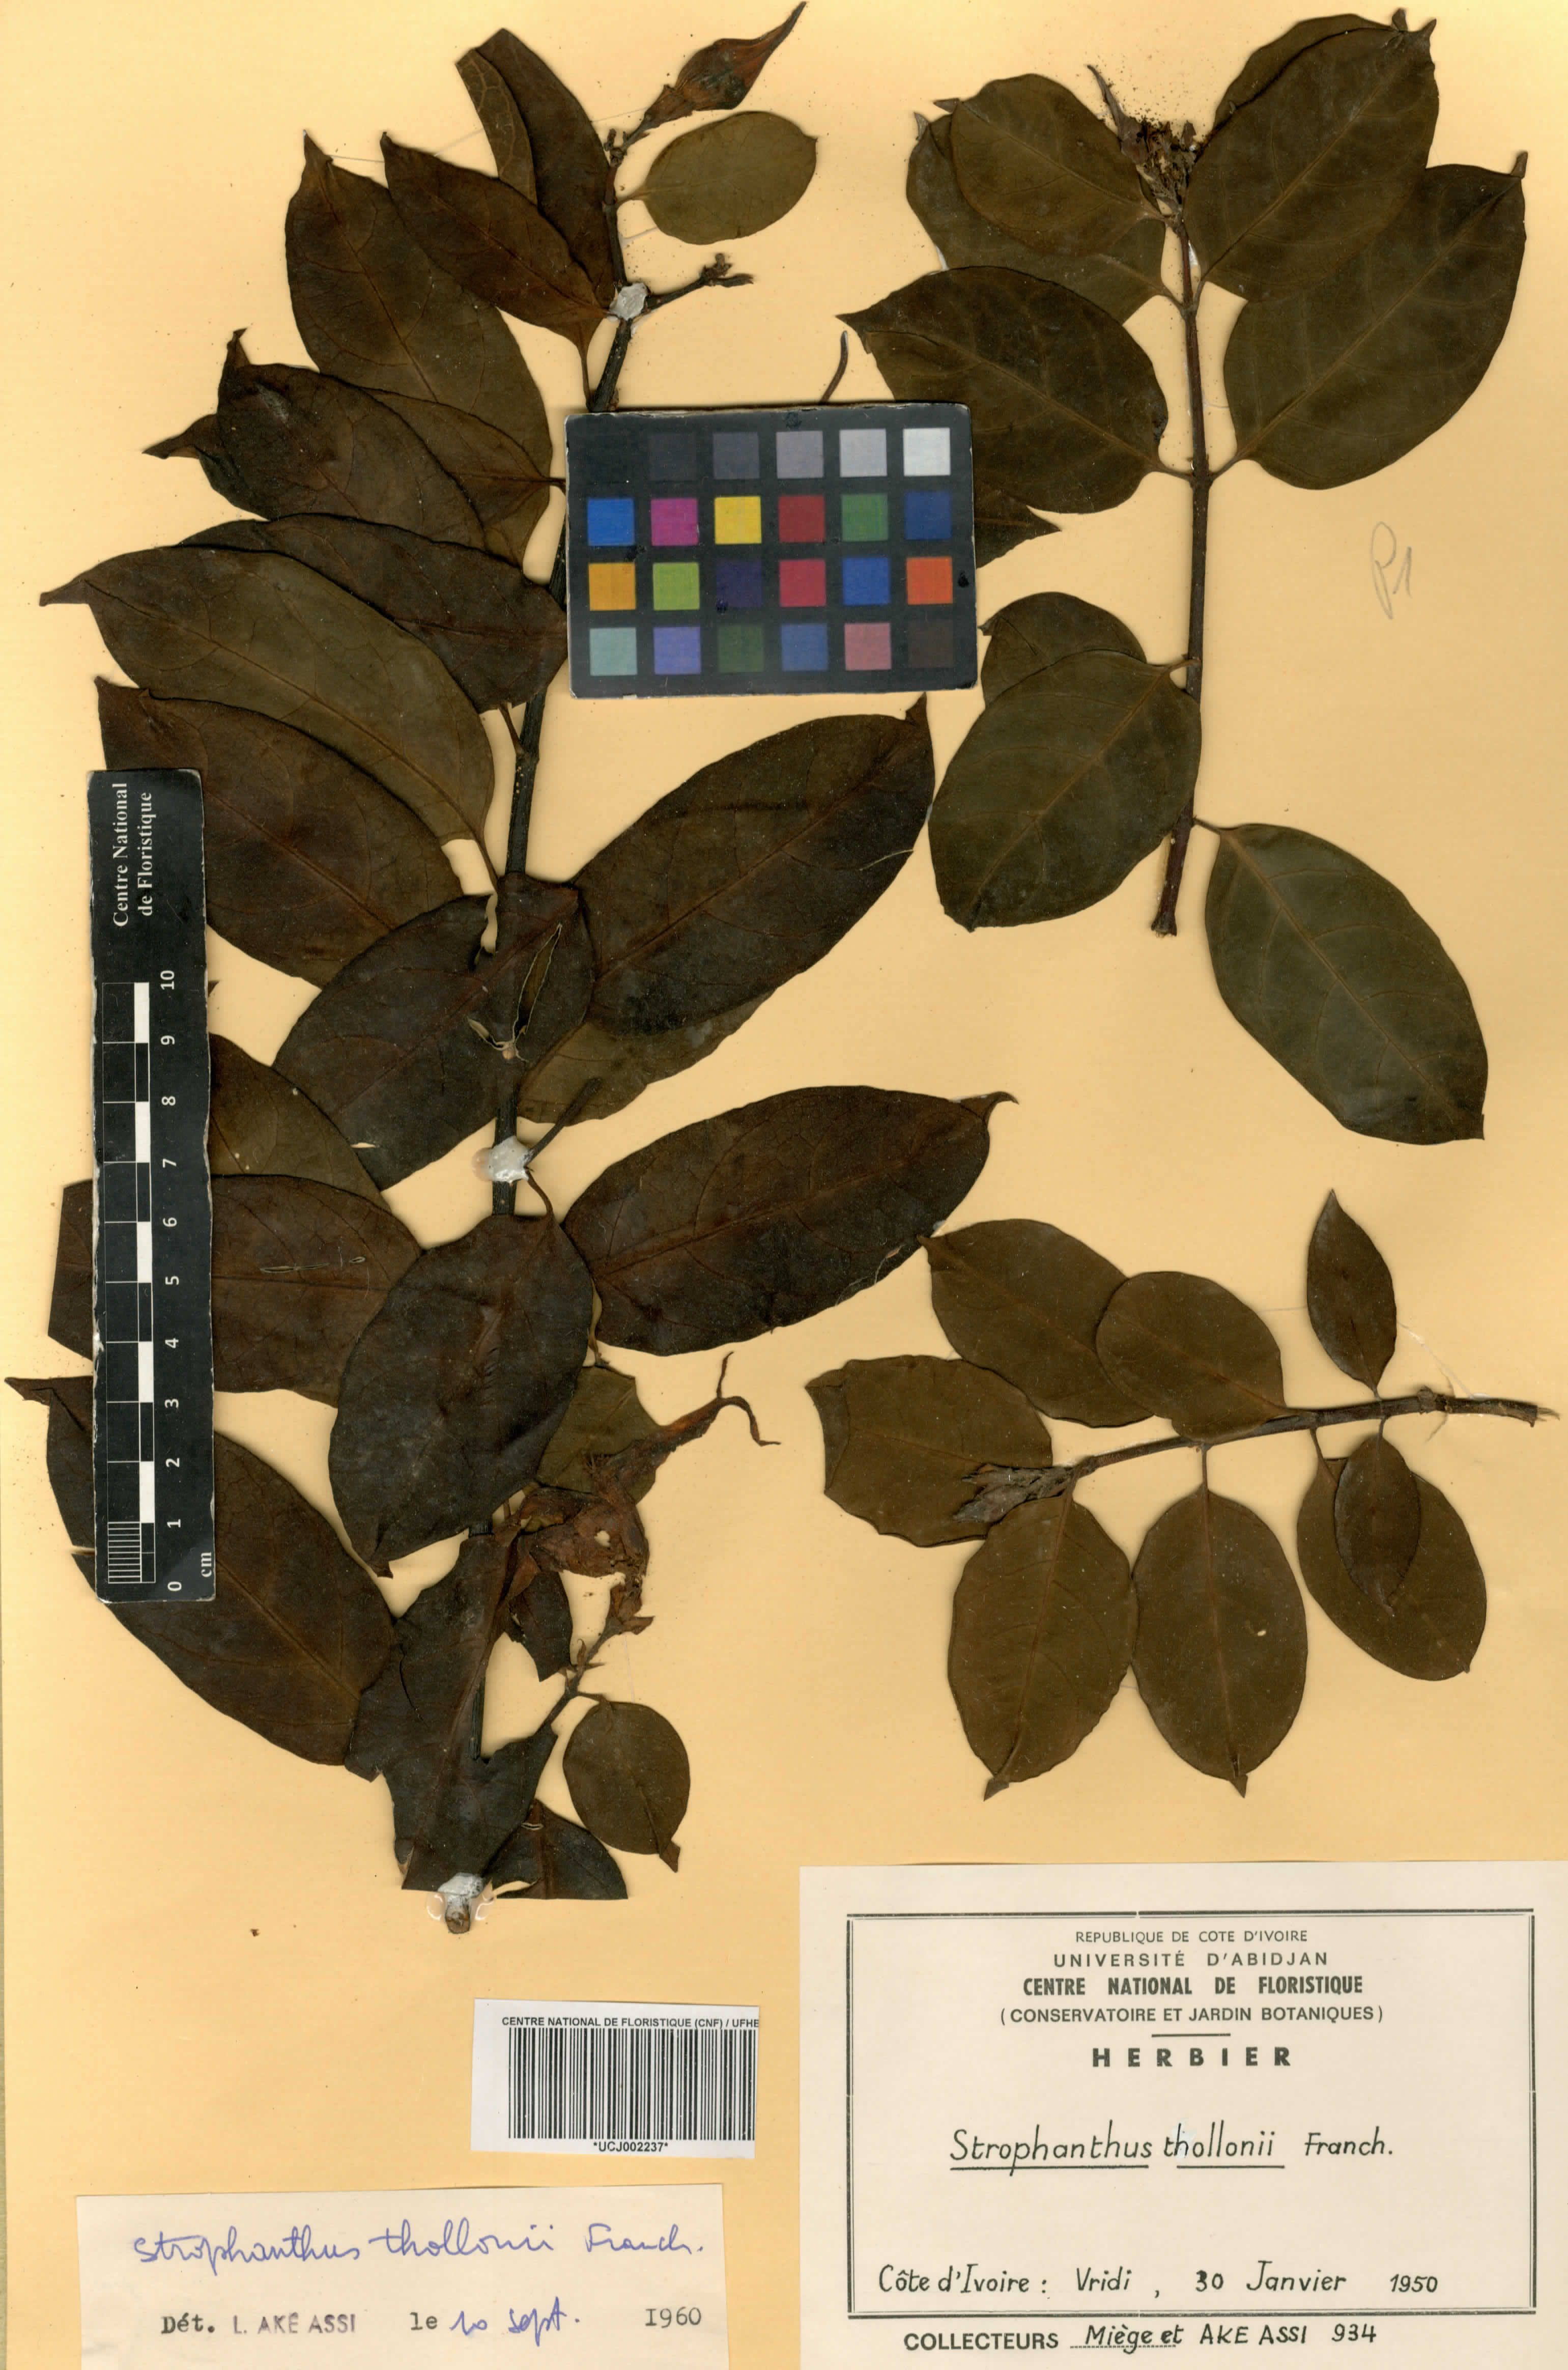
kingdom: Plantae
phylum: Tracheophyta
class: Magnoliopsida
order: Gentianales
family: Apocynaceae
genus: Strophanthus
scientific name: Strophanthus thollonii
